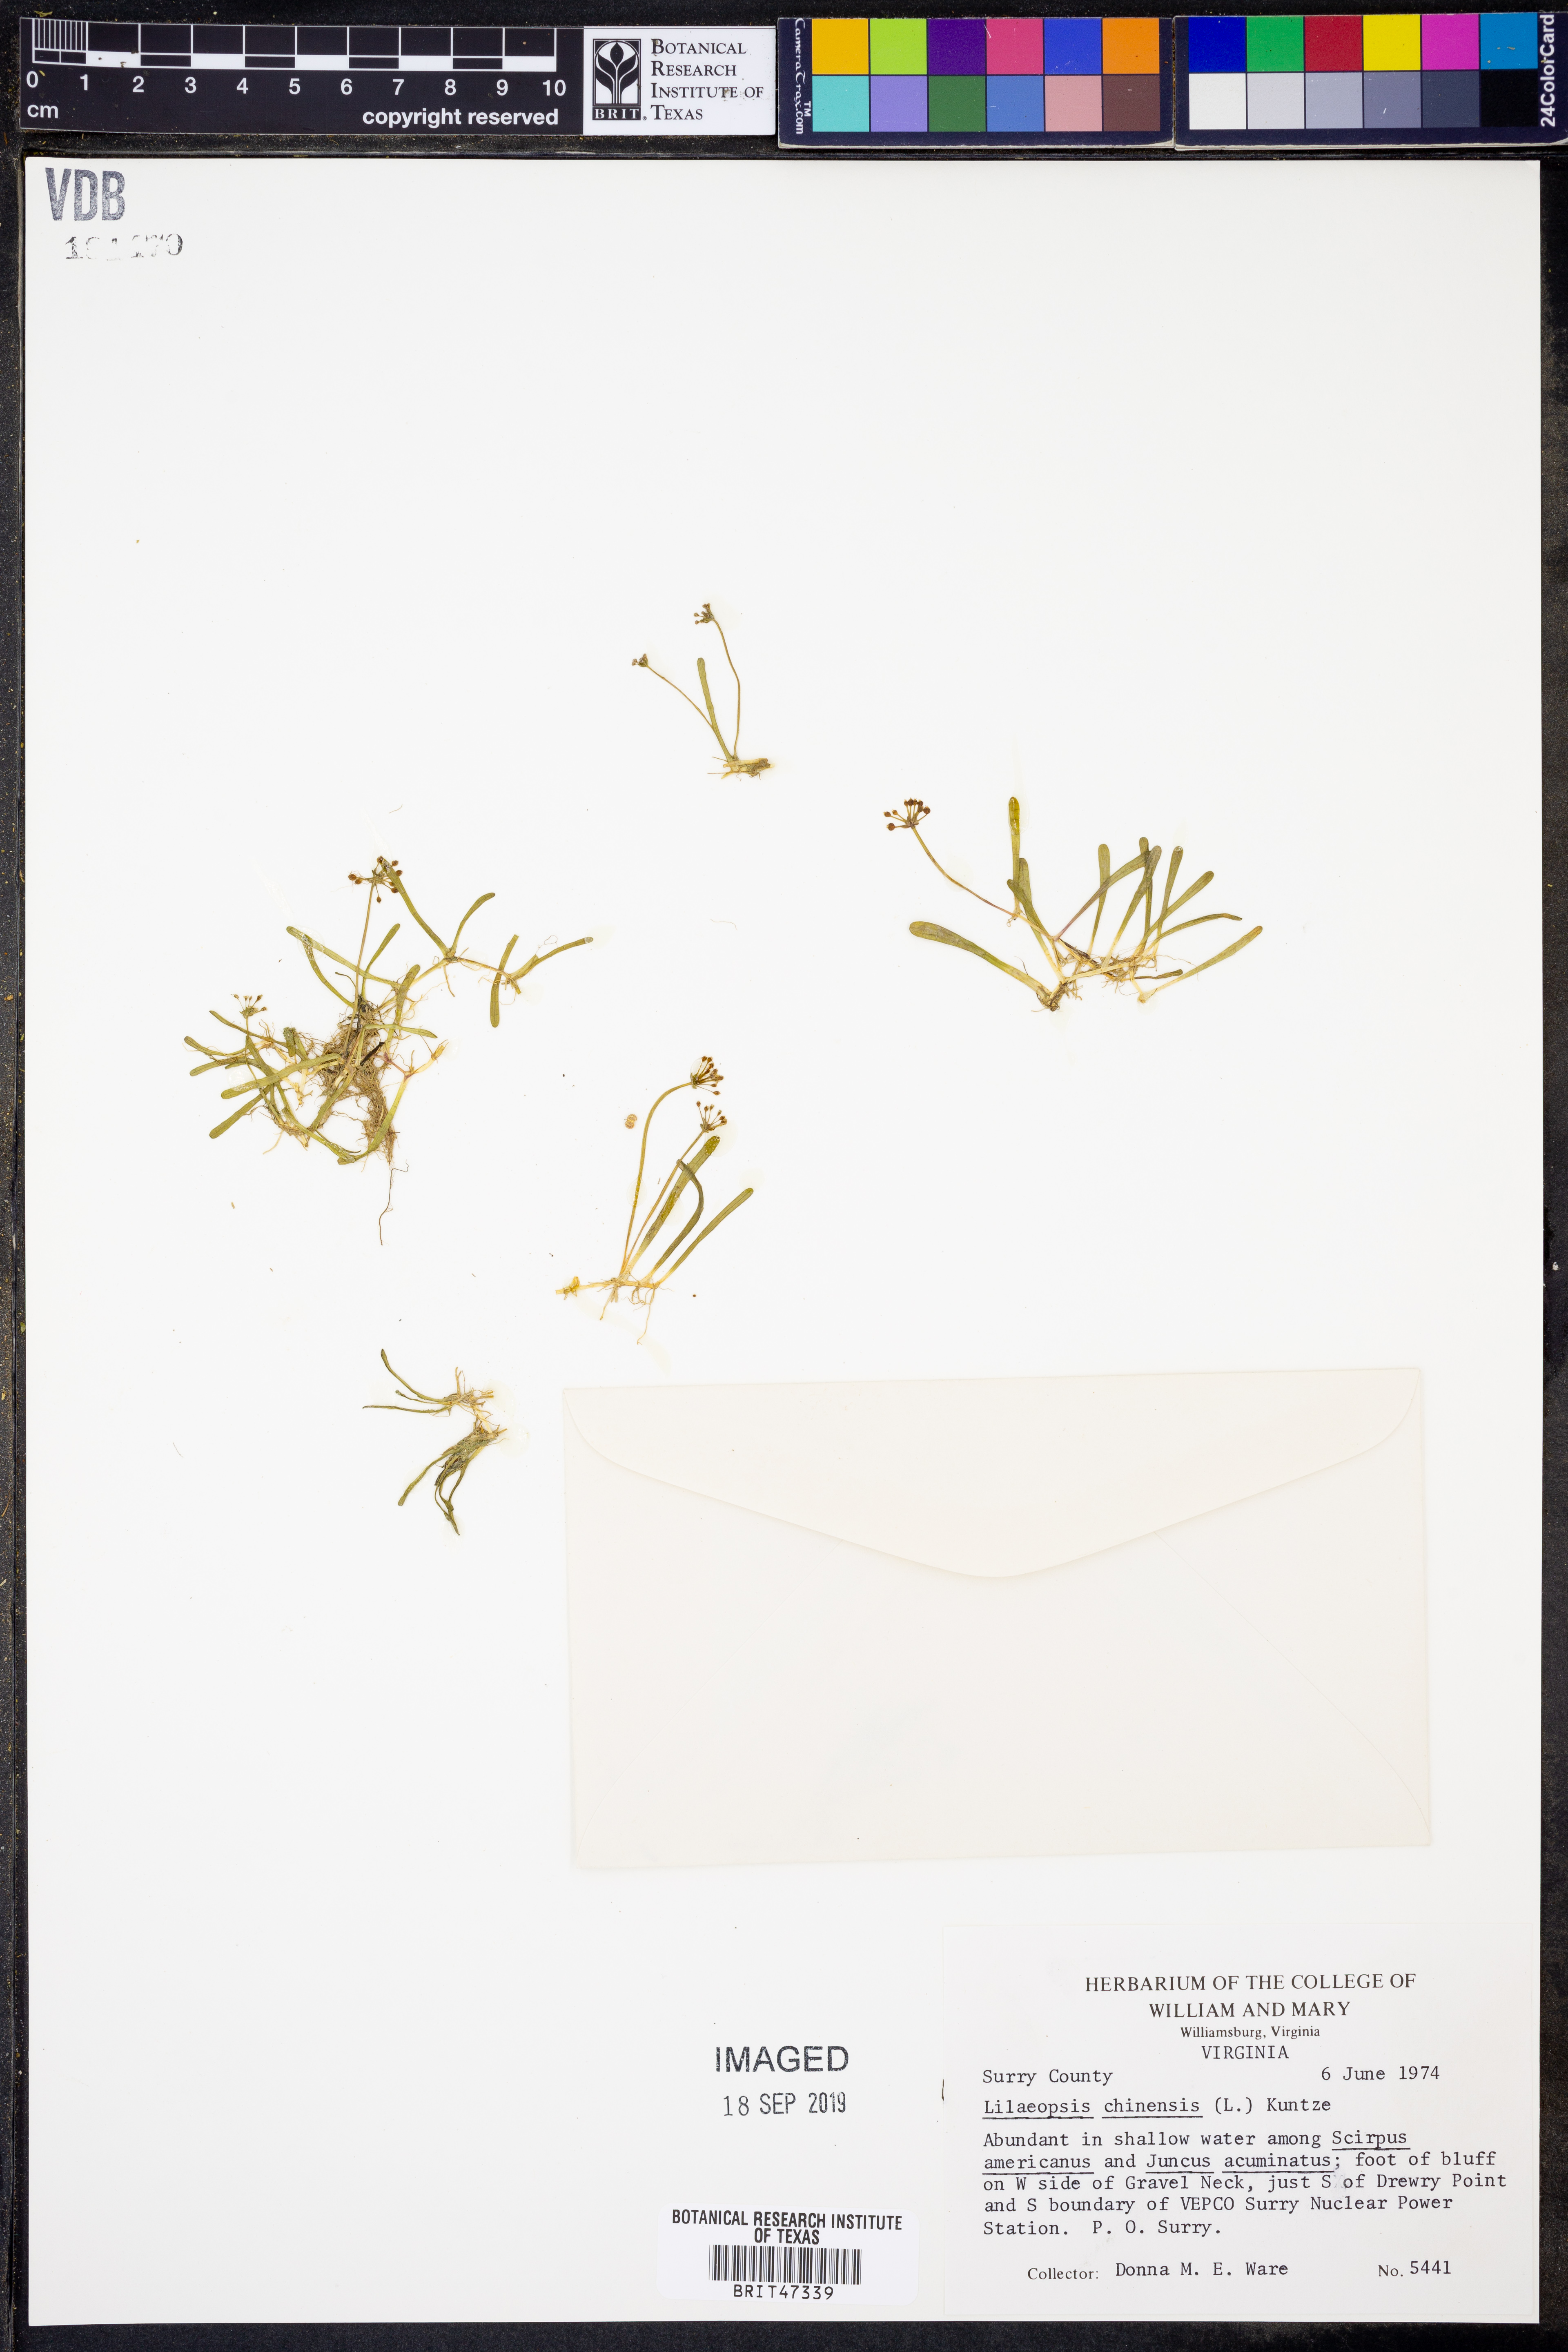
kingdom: Plantae
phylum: Tracheophyta
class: Magnoliopsida
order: Apiales
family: Apiaceae
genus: Lilaeopsis
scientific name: Lilaeopsis chinensis
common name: Eastern grasswort
